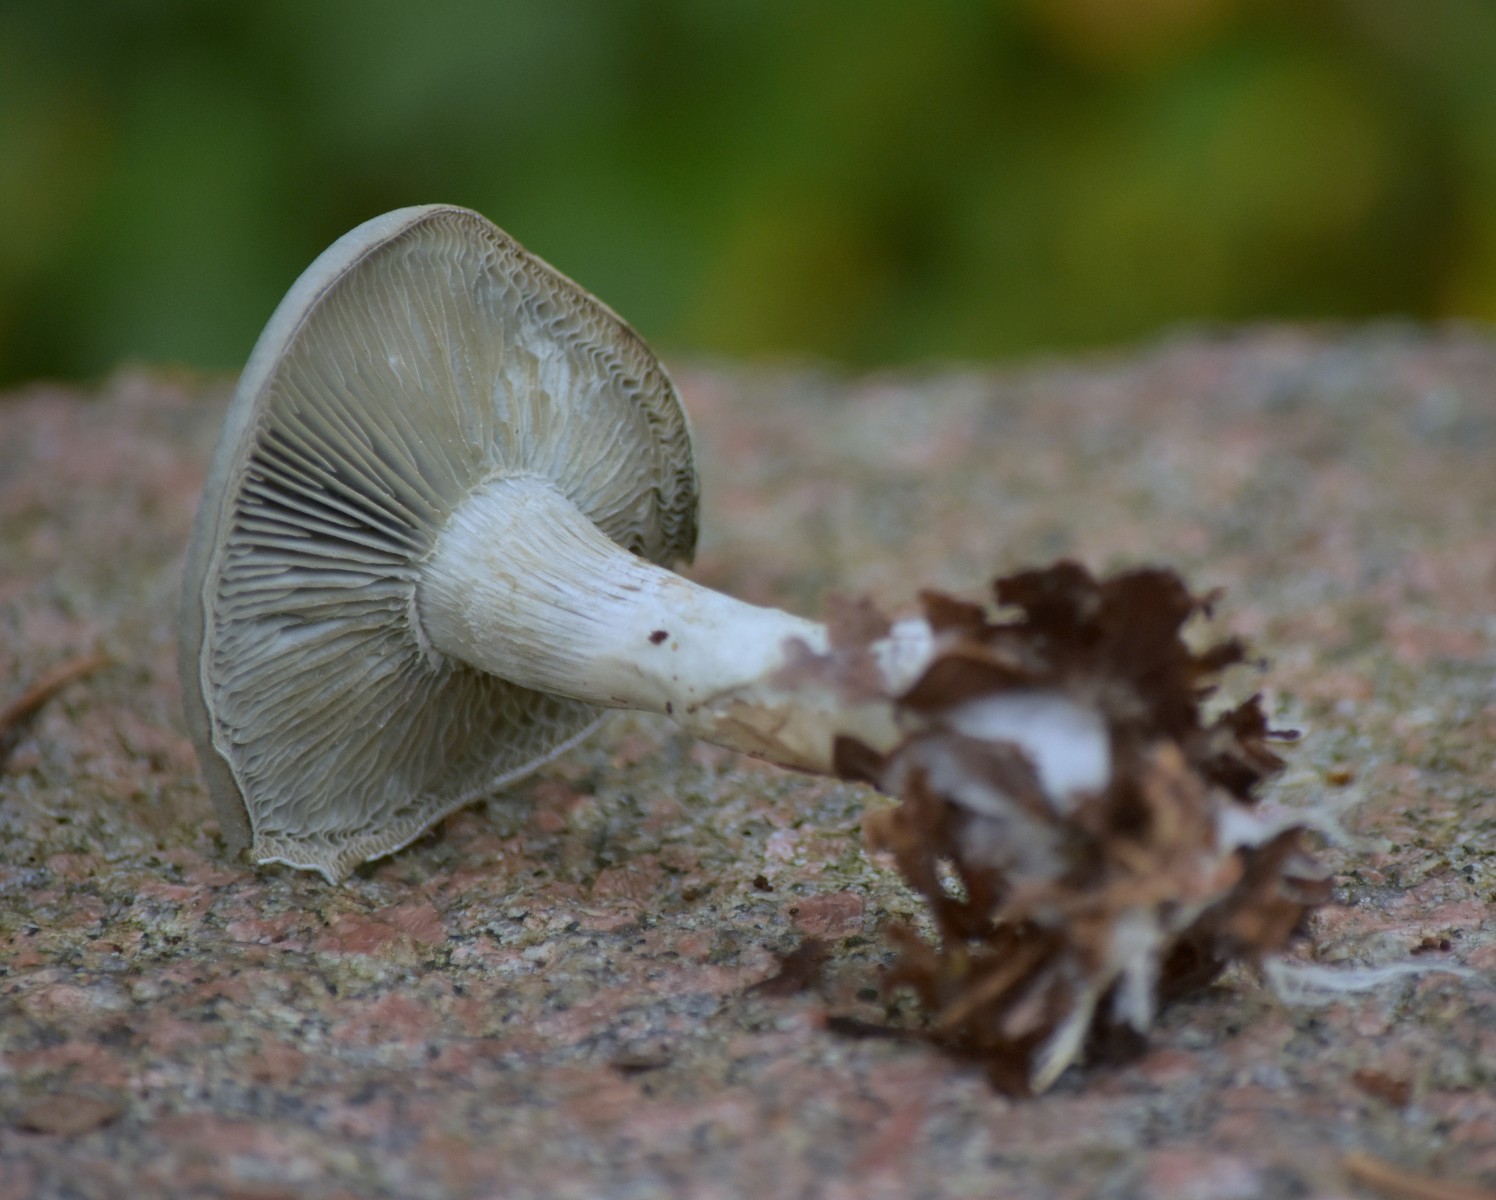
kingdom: Fungi
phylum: Basidiomycota
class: Agaricomycetes
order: Agaricales
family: Tricholomataceae
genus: Clitocybe
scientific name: Clitocybe odora
